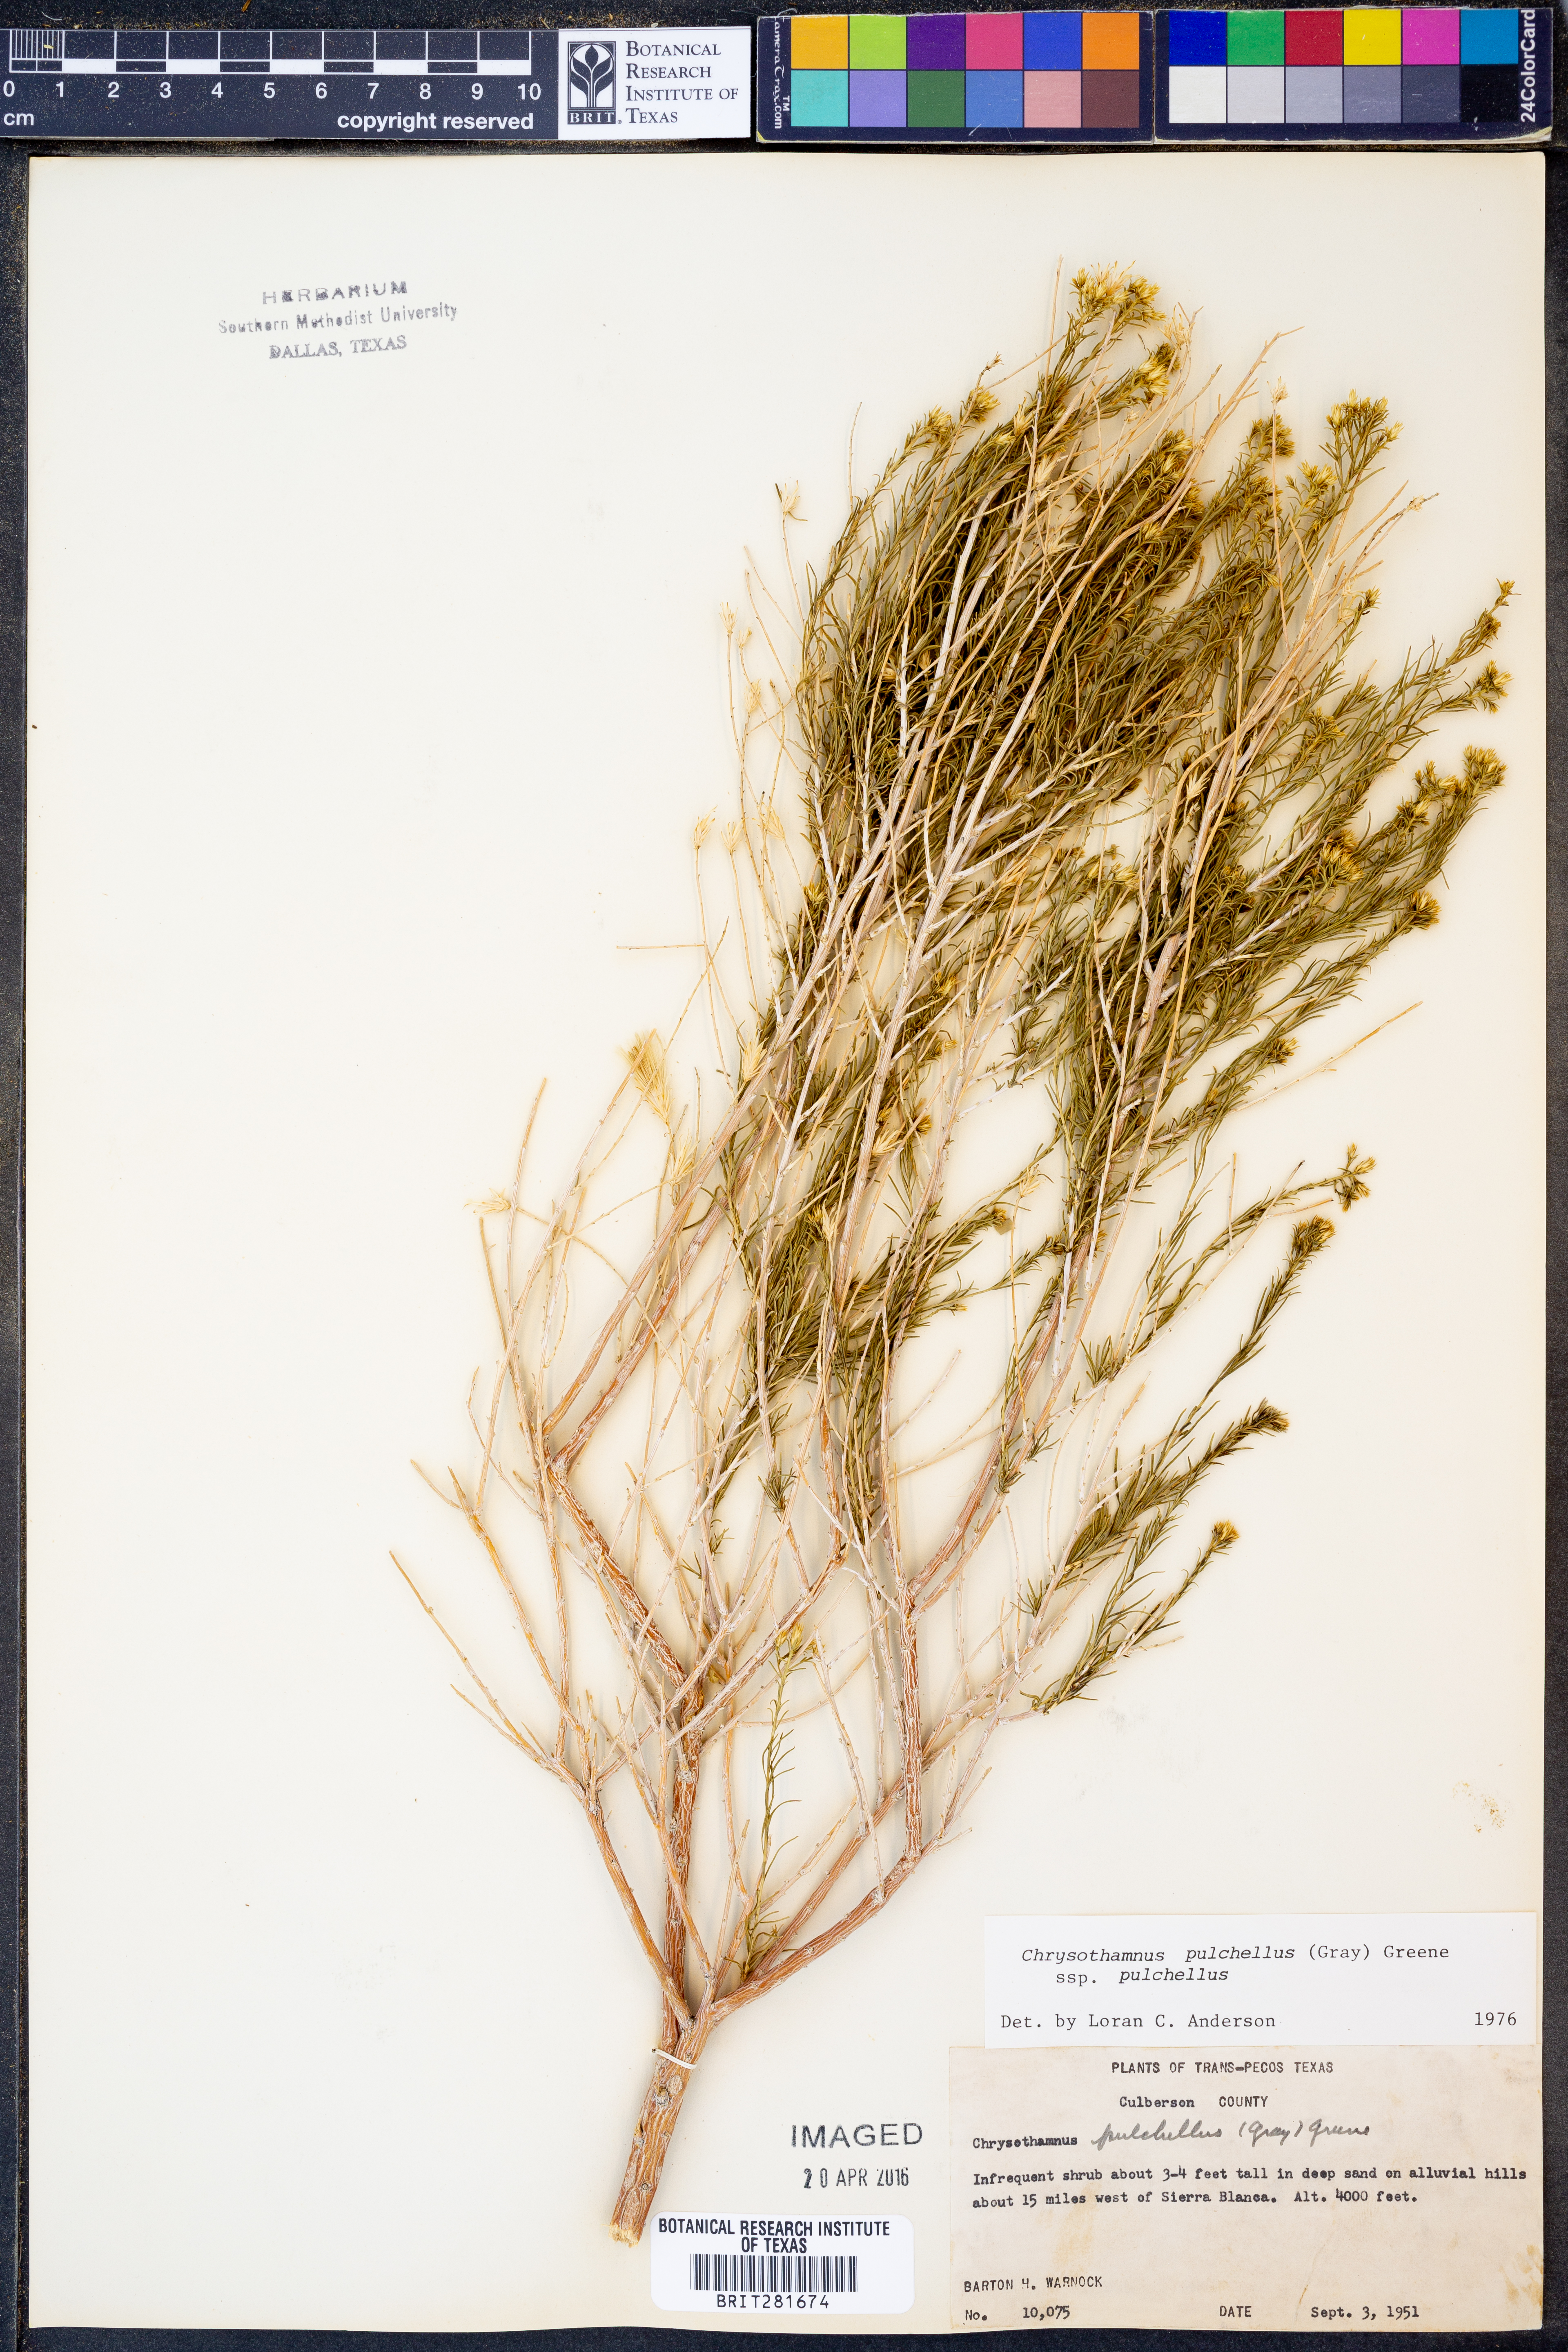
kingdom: Plantae
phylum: Tracheophyta
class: Magnoliopsida
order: Asterales
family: Asteraceae
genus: Lorandersonia
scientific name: Lorandersonia pulchella
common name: Southwestern rabbitbrush
